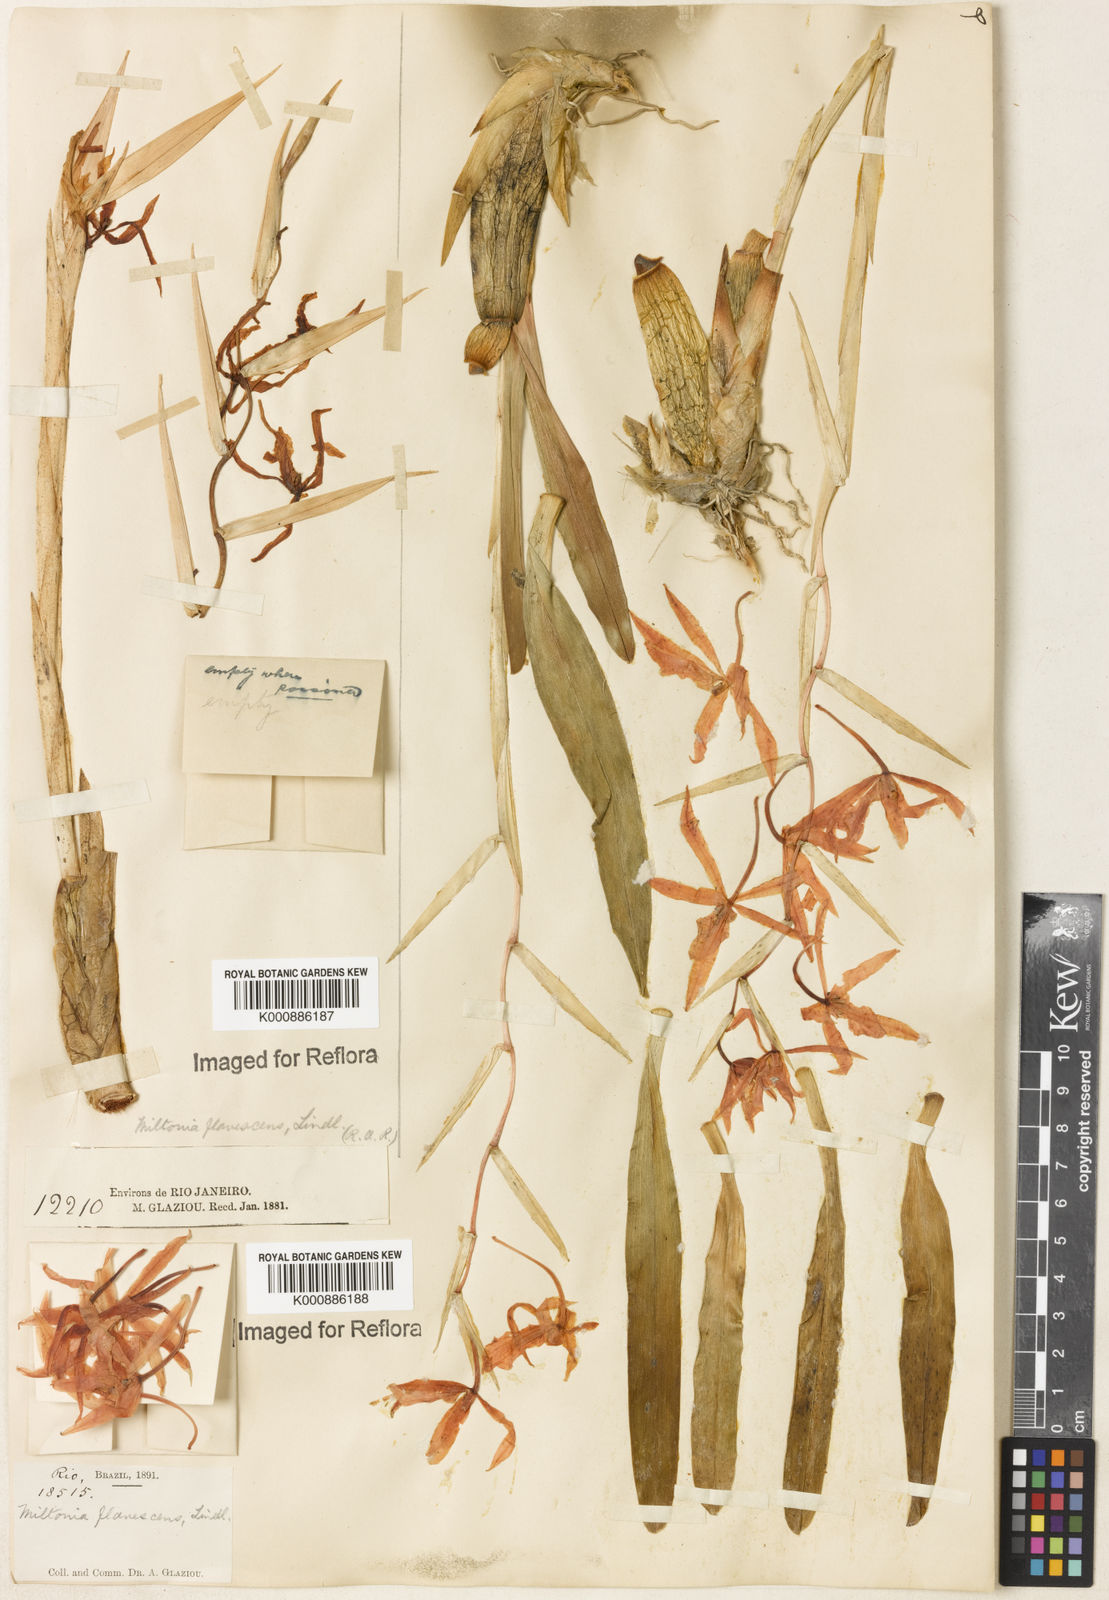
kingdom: Plantae
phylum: Tracheophyta
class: Liliopsida
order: Asparagales
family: Orchidaceae
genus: Miltonia
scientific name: Miltonia flavescens
